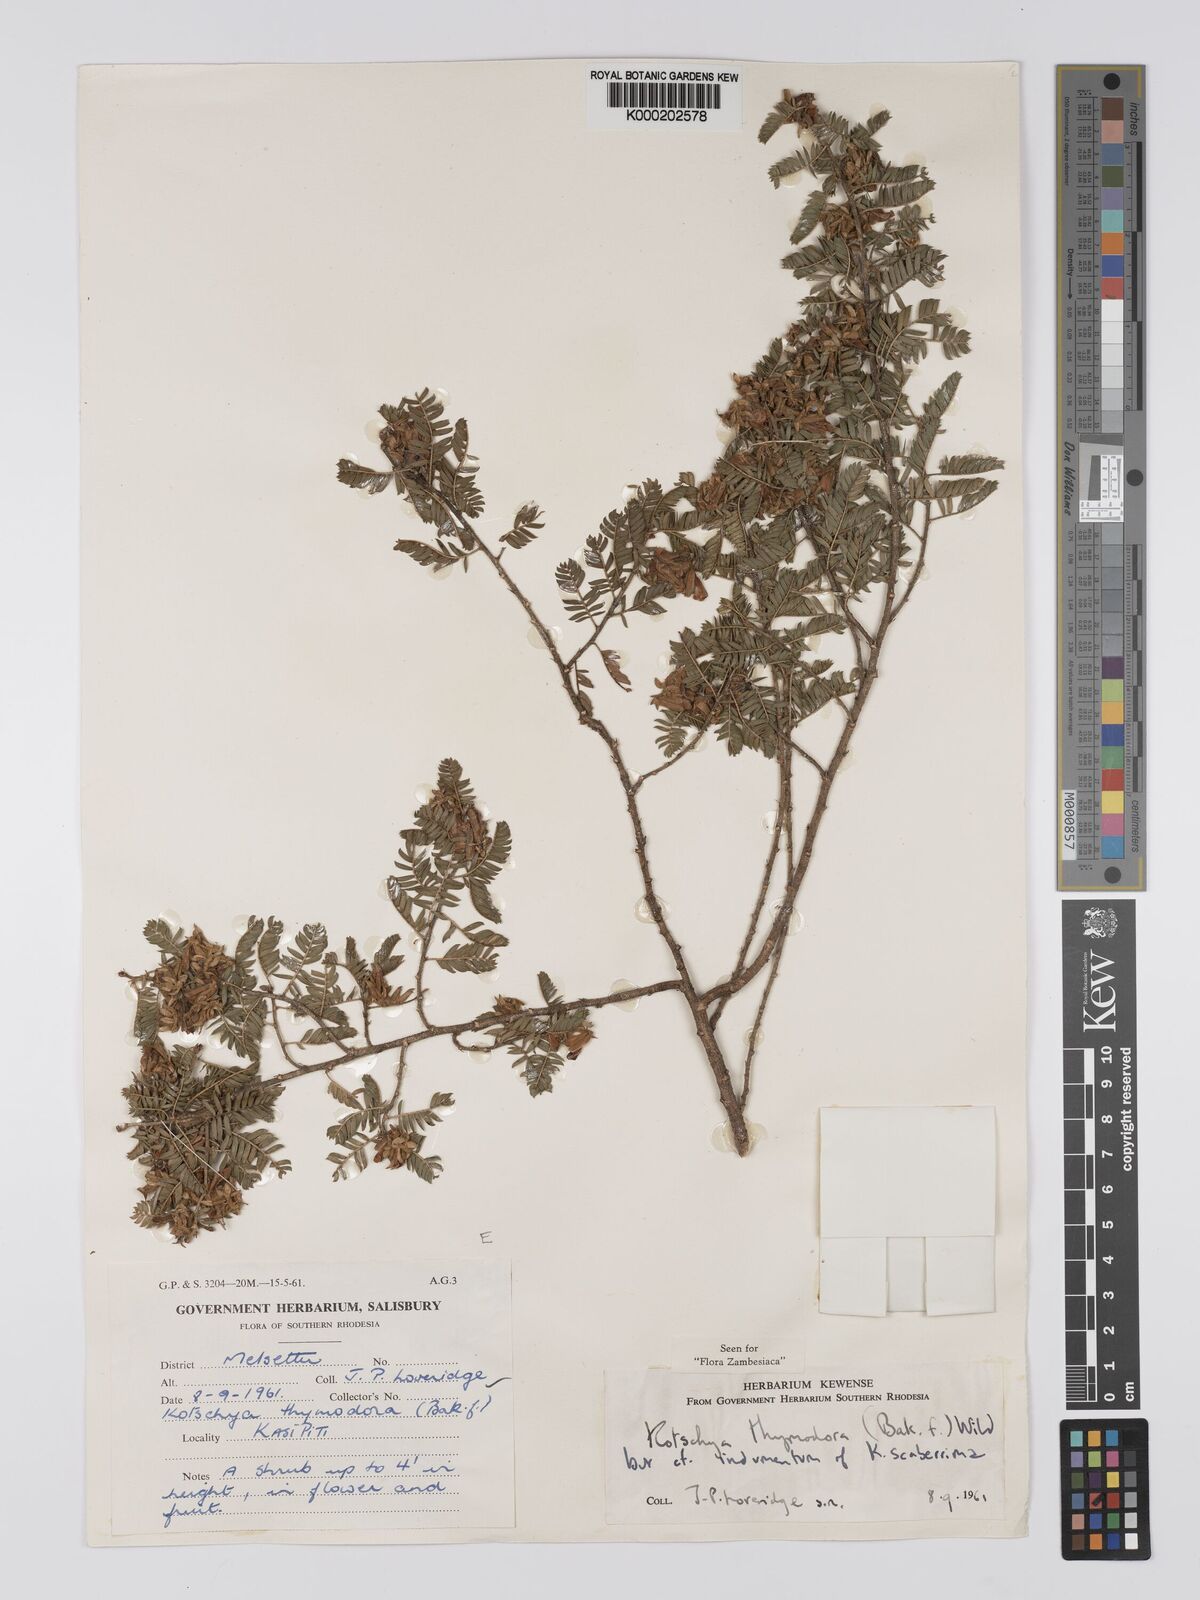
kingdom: Plantae
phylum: Tracheophyta
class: Magnoliopsida
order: Fabales
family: Fabaceae
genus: Kotschya
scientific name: Kotschya thymodora
